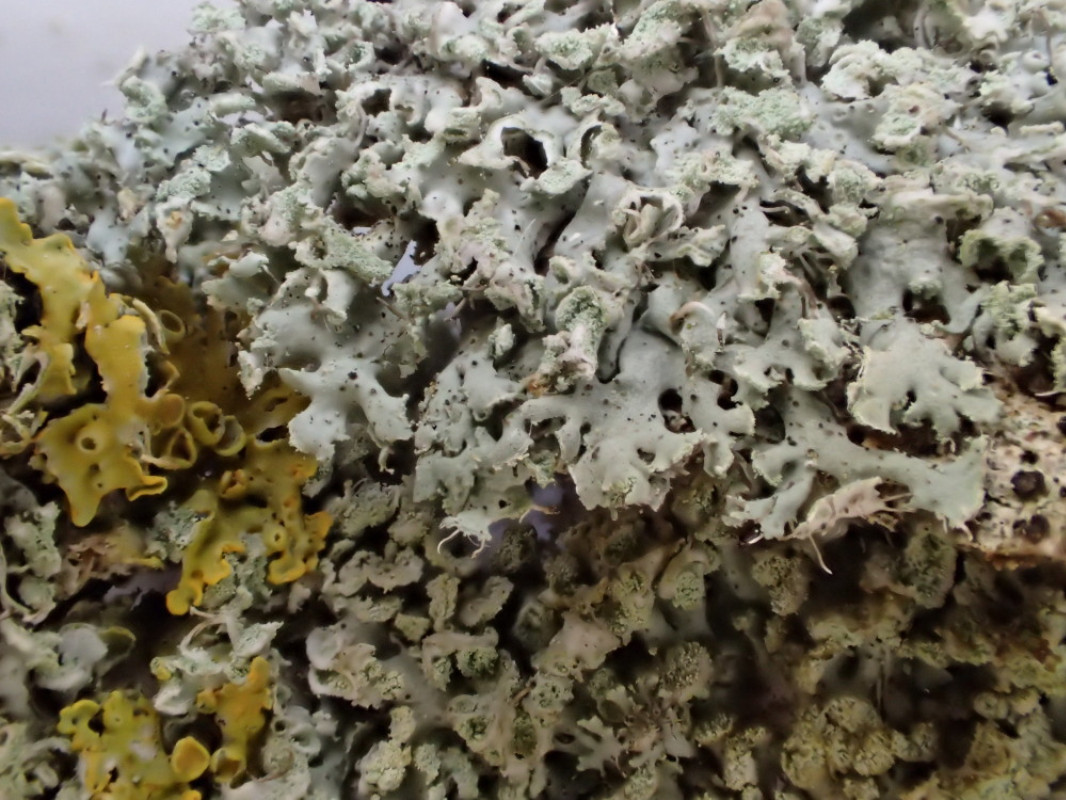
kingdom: Fungi
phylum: Ascomycota
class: Lecanoromycetes
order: Caliciales
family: Physciaceae
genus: Physcia
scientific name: Physcia tenella
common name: spæd rosetlav
